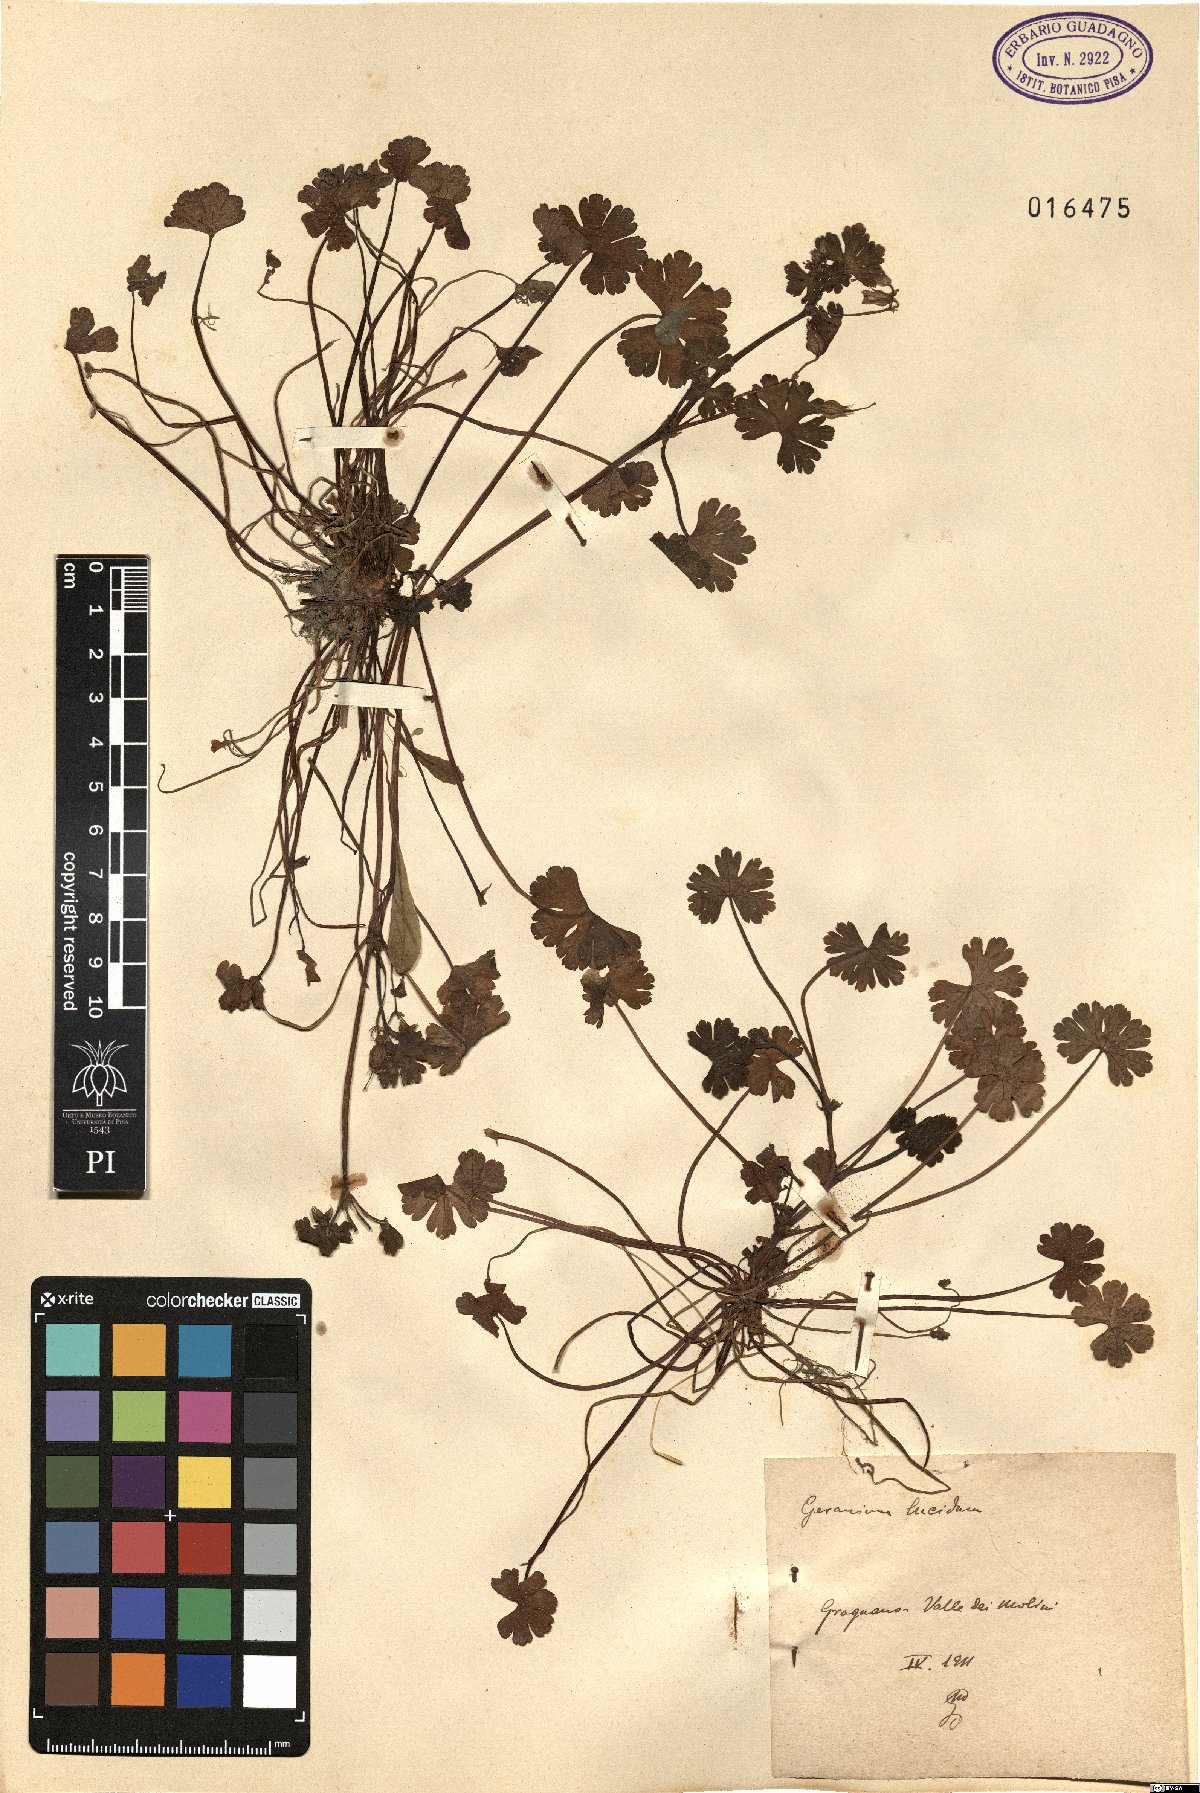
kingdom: Plantae
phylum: Tracheophyta
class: Magnoliopsida
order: Geraniales
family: Geraniaceae
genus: Geranium
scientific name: Geranium lucidum
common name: Shining crane's-bill
